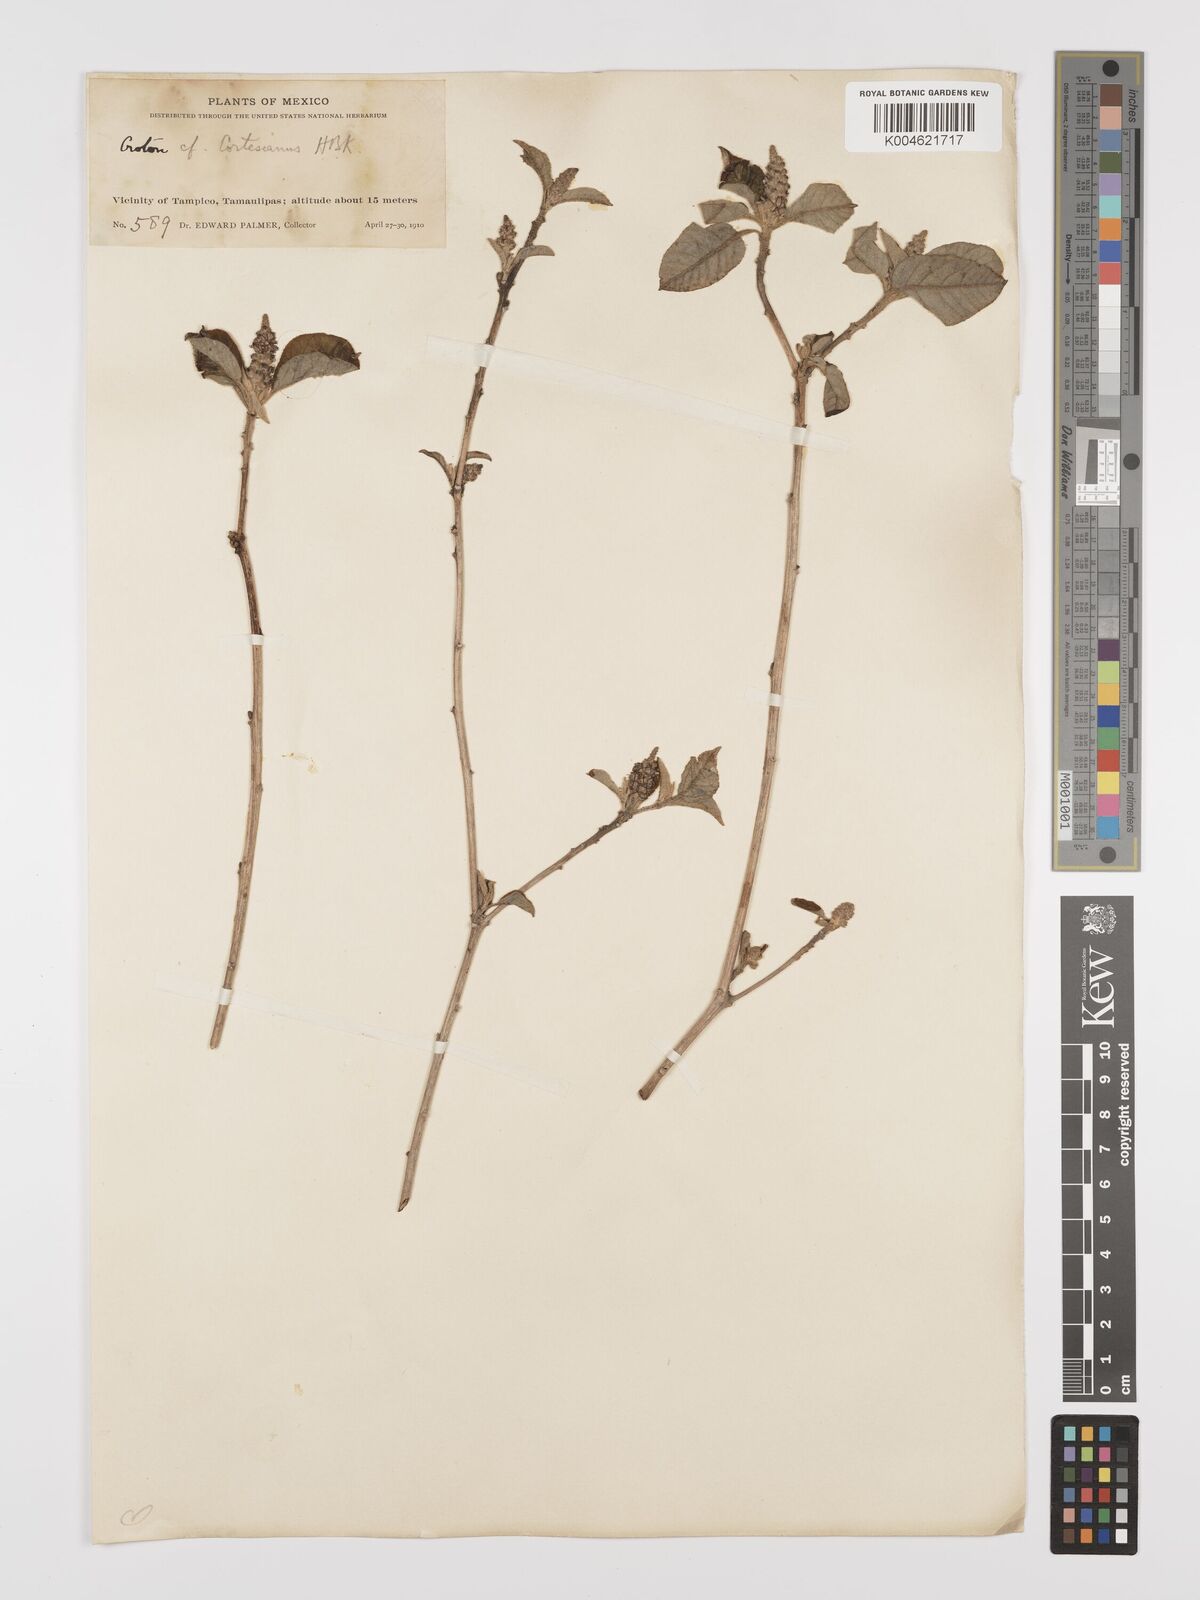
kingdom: Plantae
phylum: Tracheophyta
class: Magnoliopsida
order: Malpighiales
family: Euphorbiaceae
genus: Croton
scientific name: Croton cortesianus
